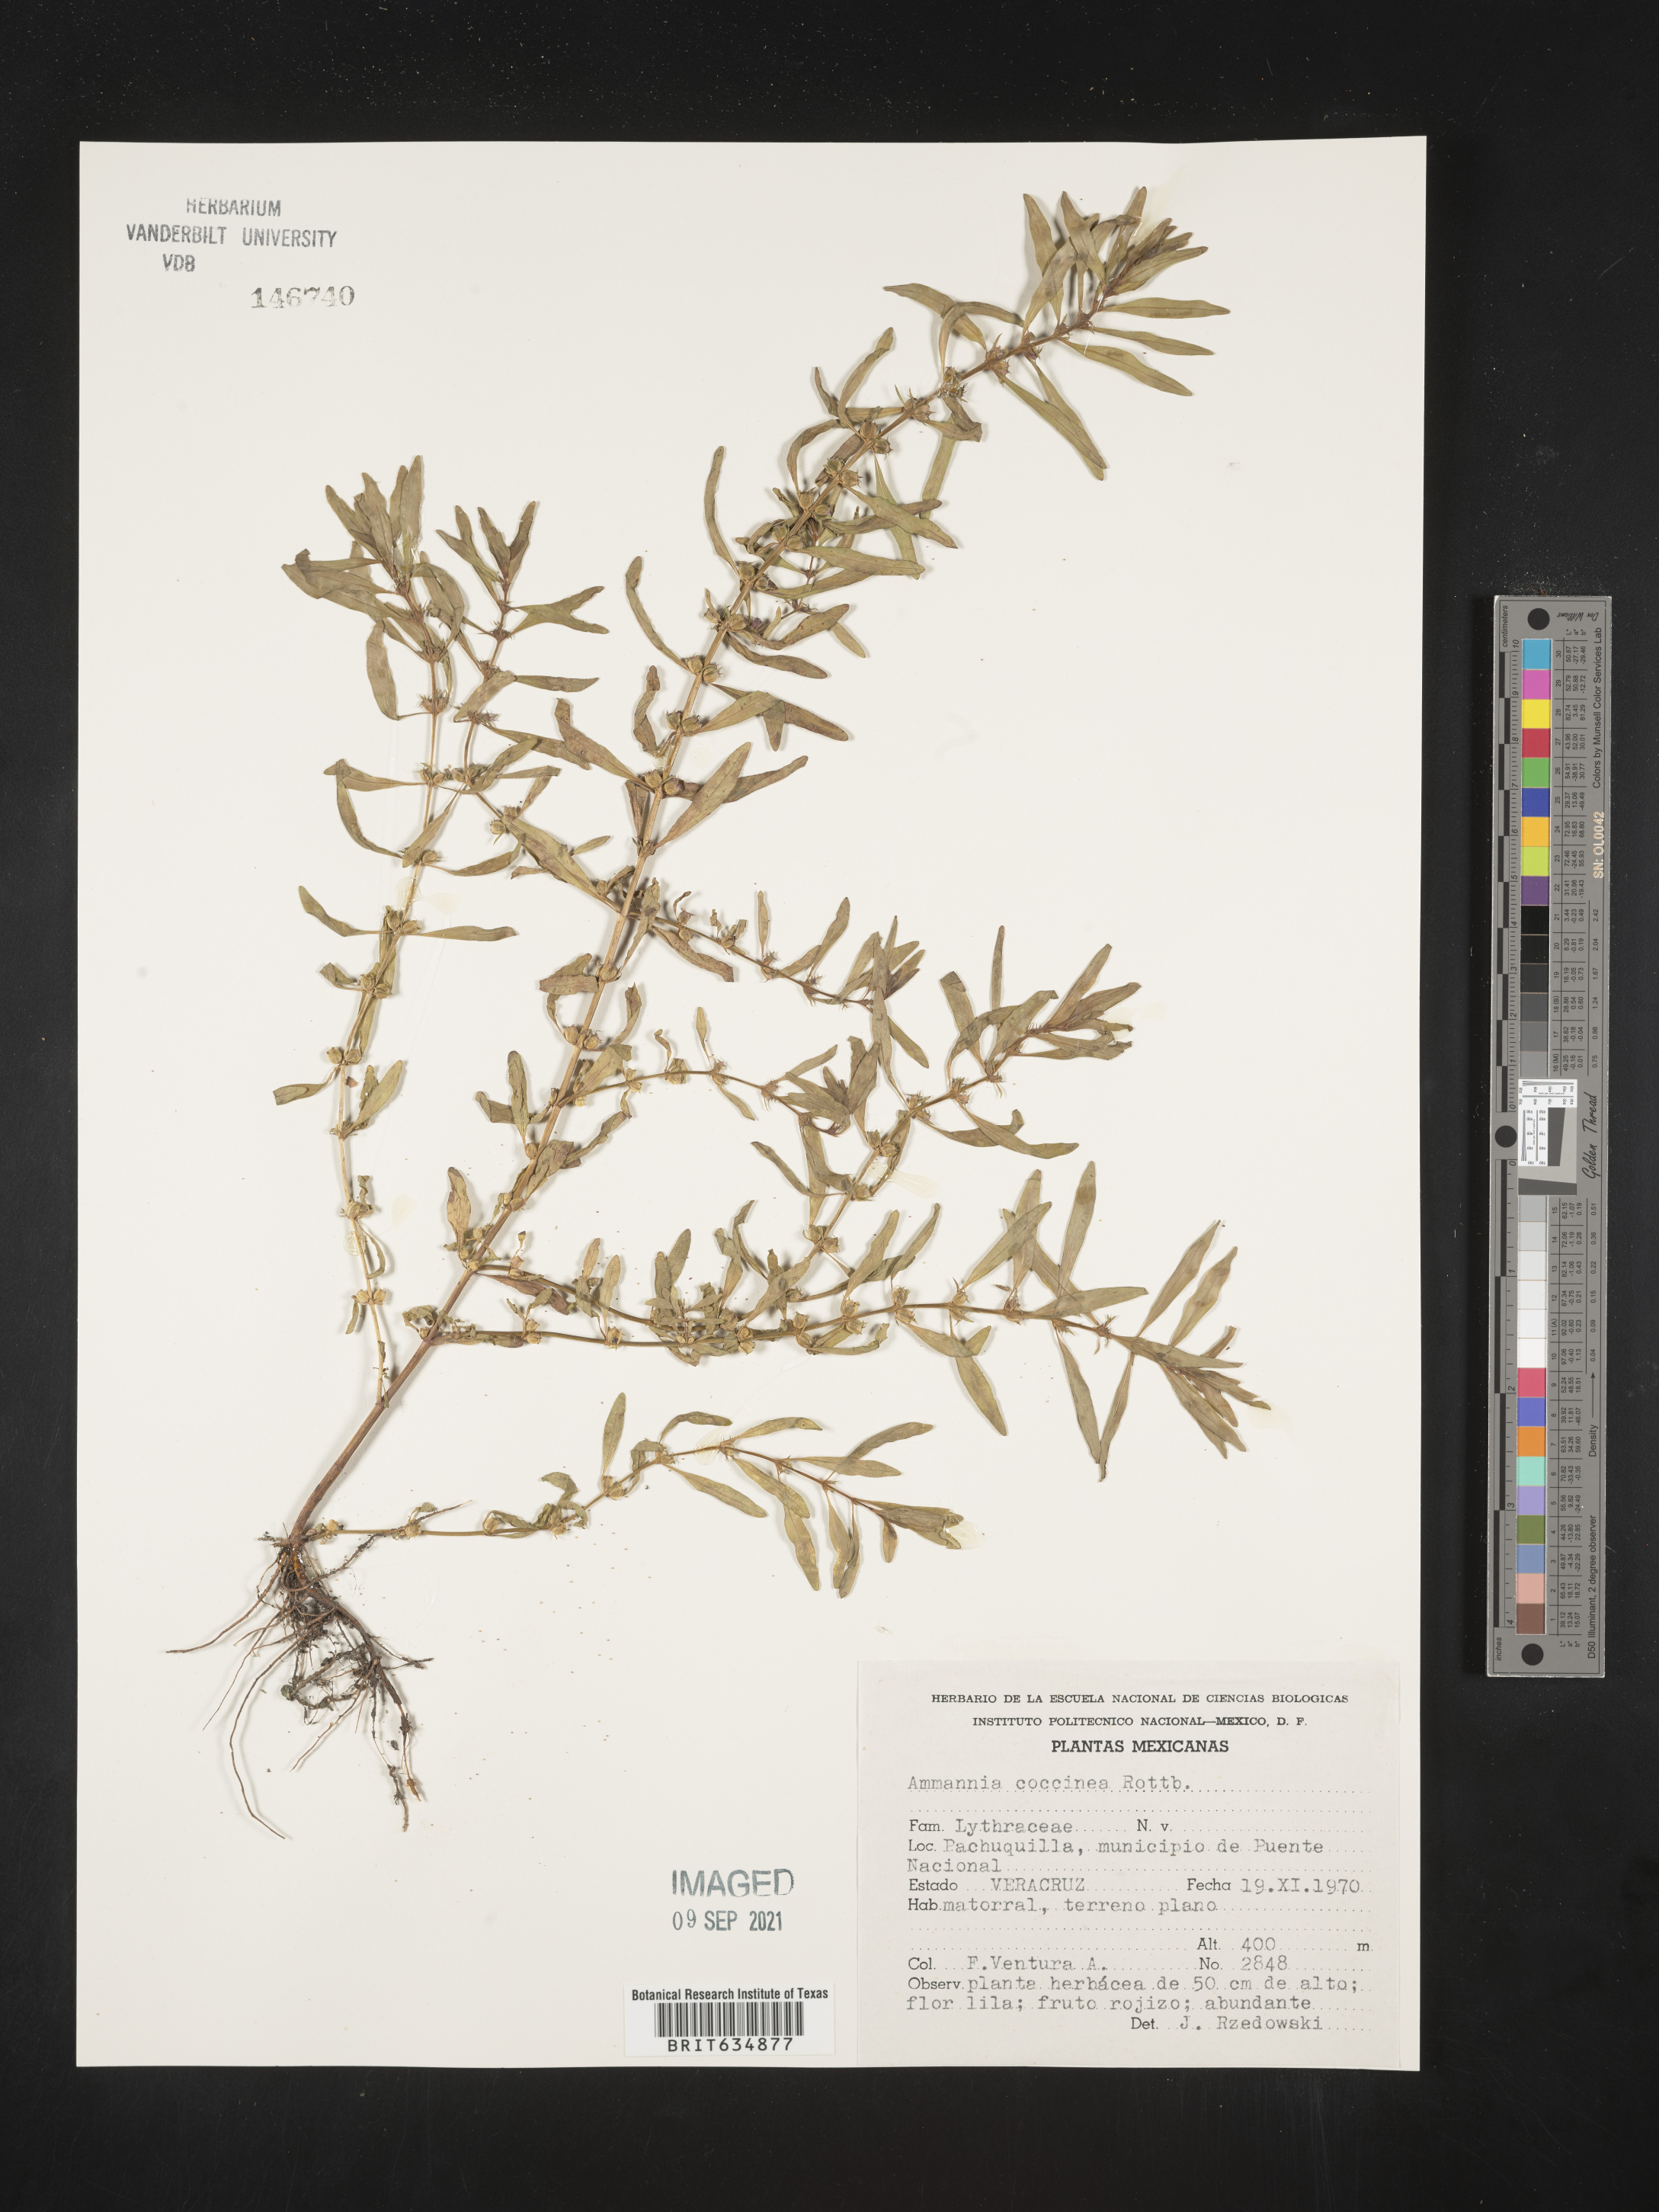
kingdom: Plantae
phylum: Tracheophyta
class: Magnoliopsida
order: Myrtales
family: Lythraceae
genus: Ammannia
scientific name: Ammannia
